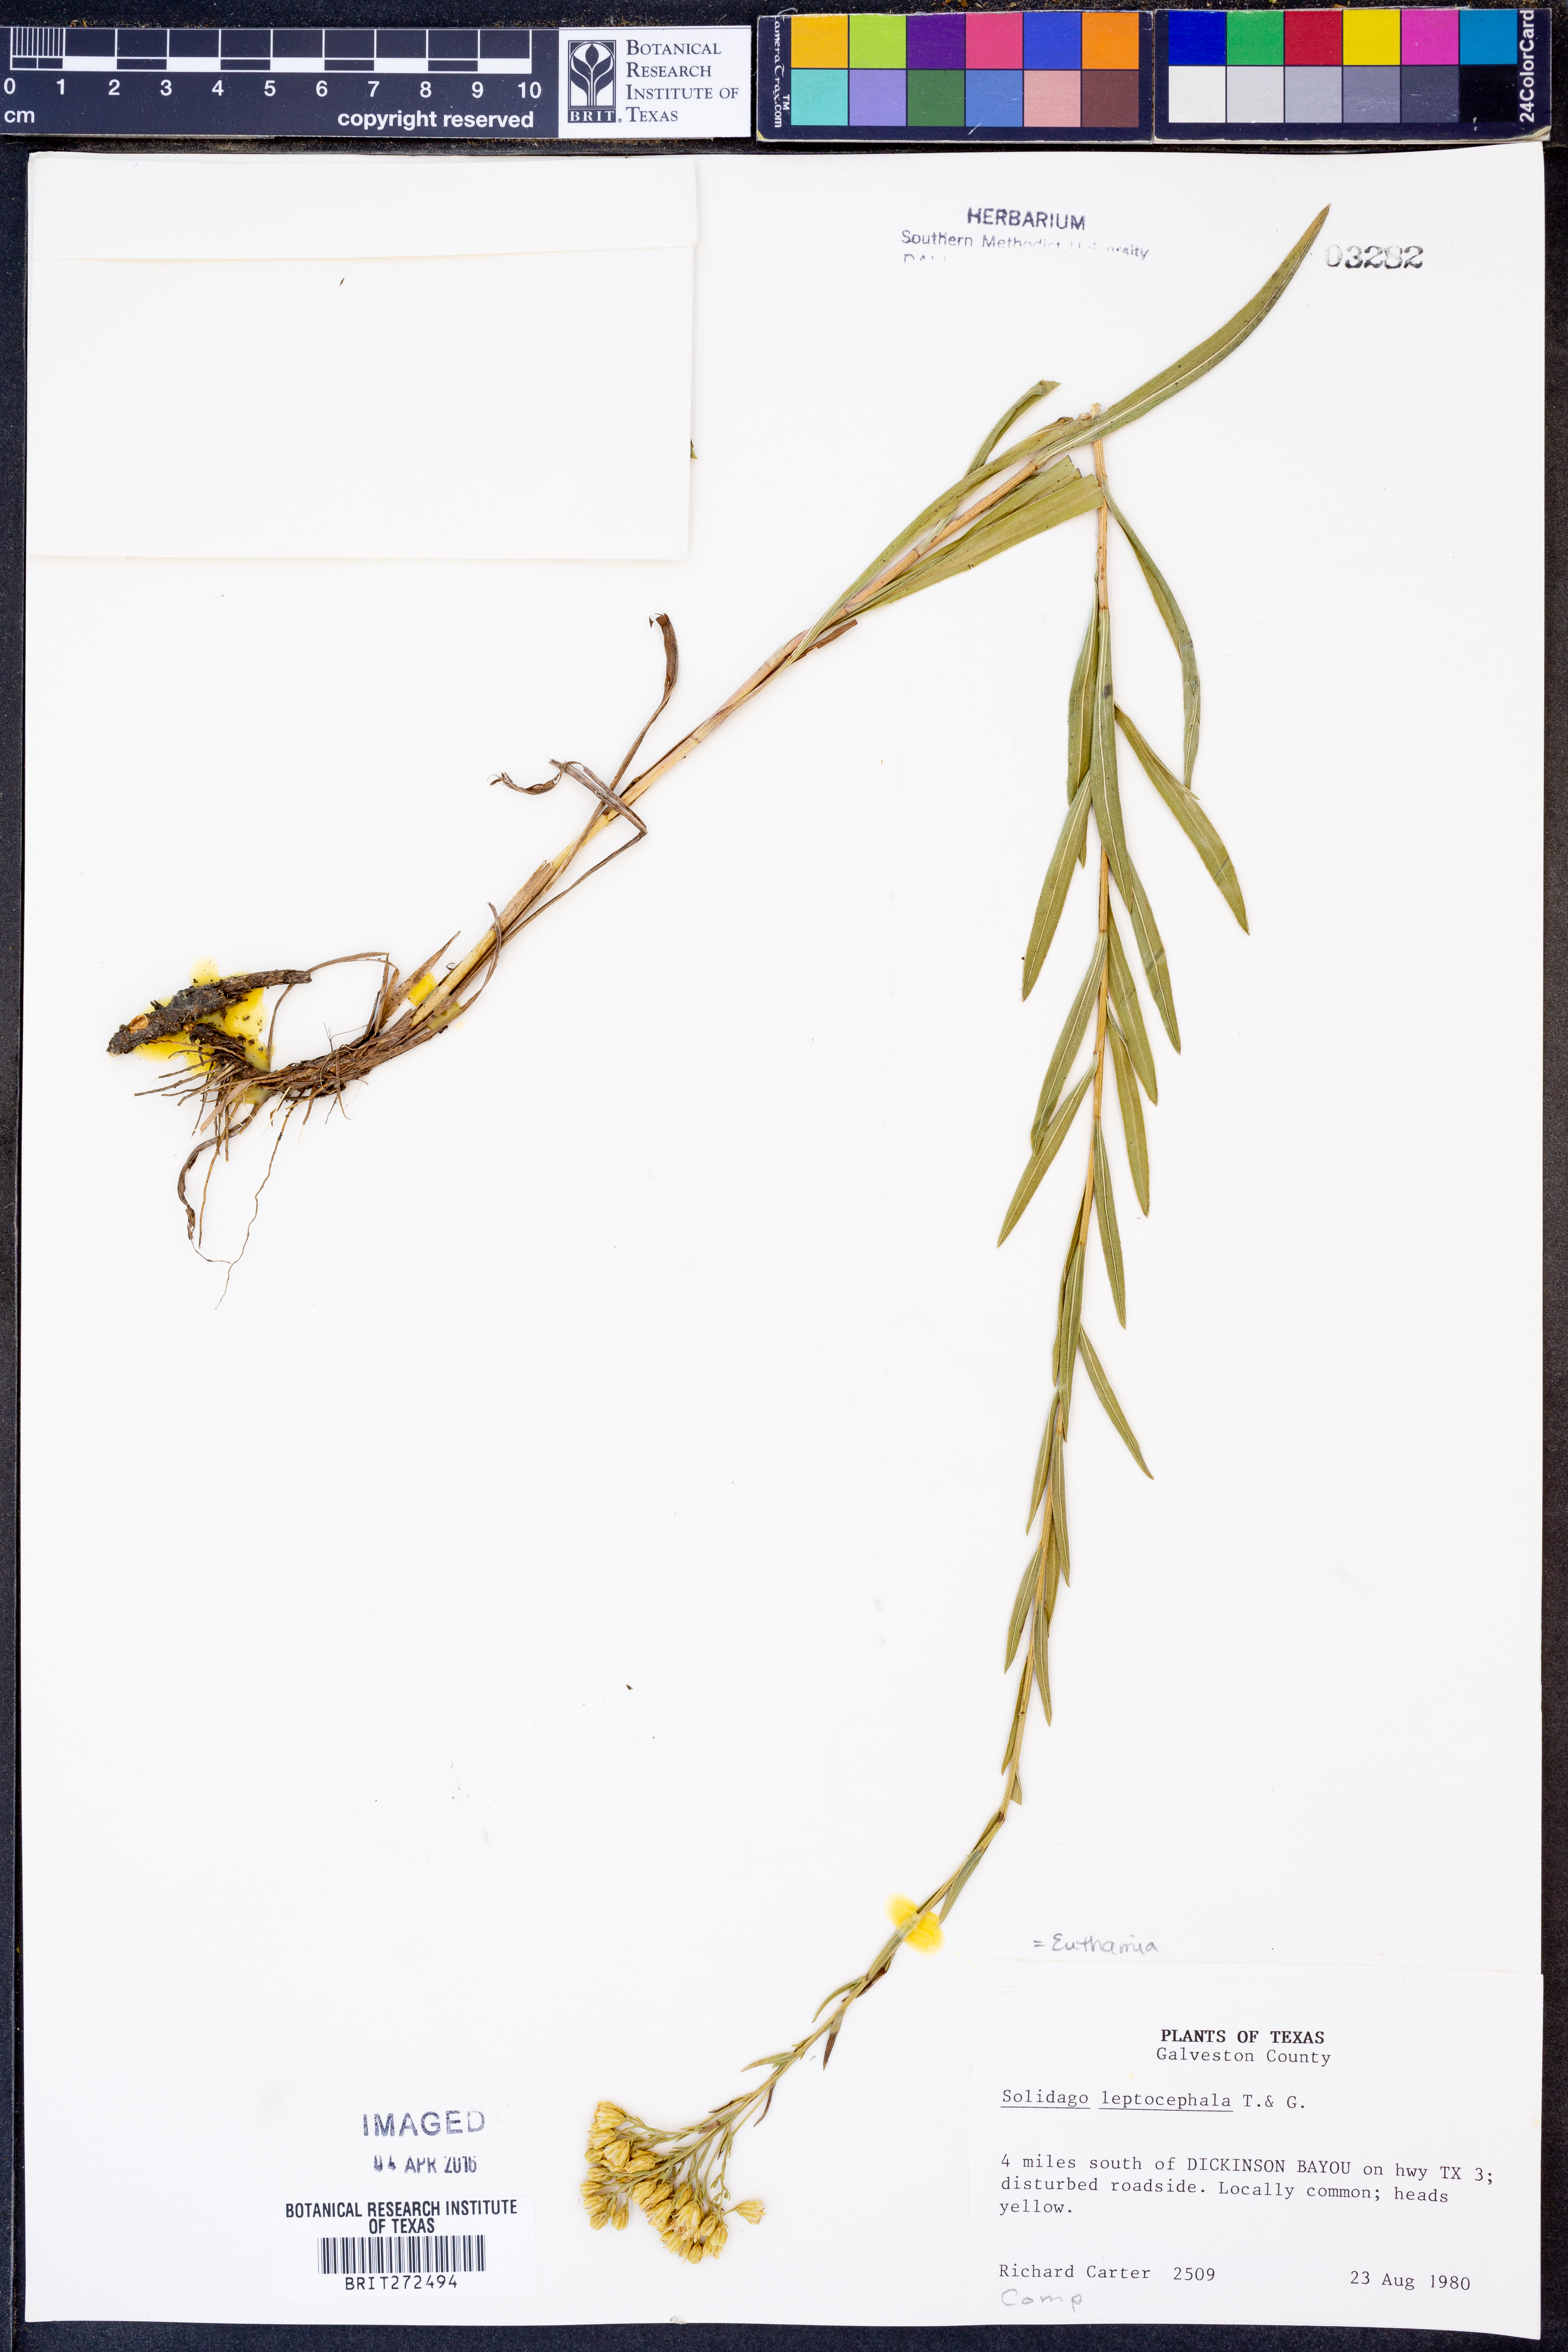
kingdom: Plantae
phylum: Tracheophyta
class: Magnoliopsida
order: Asterales
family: Asteraceae
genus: Euthamia
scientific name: Euthamia leptocephala
